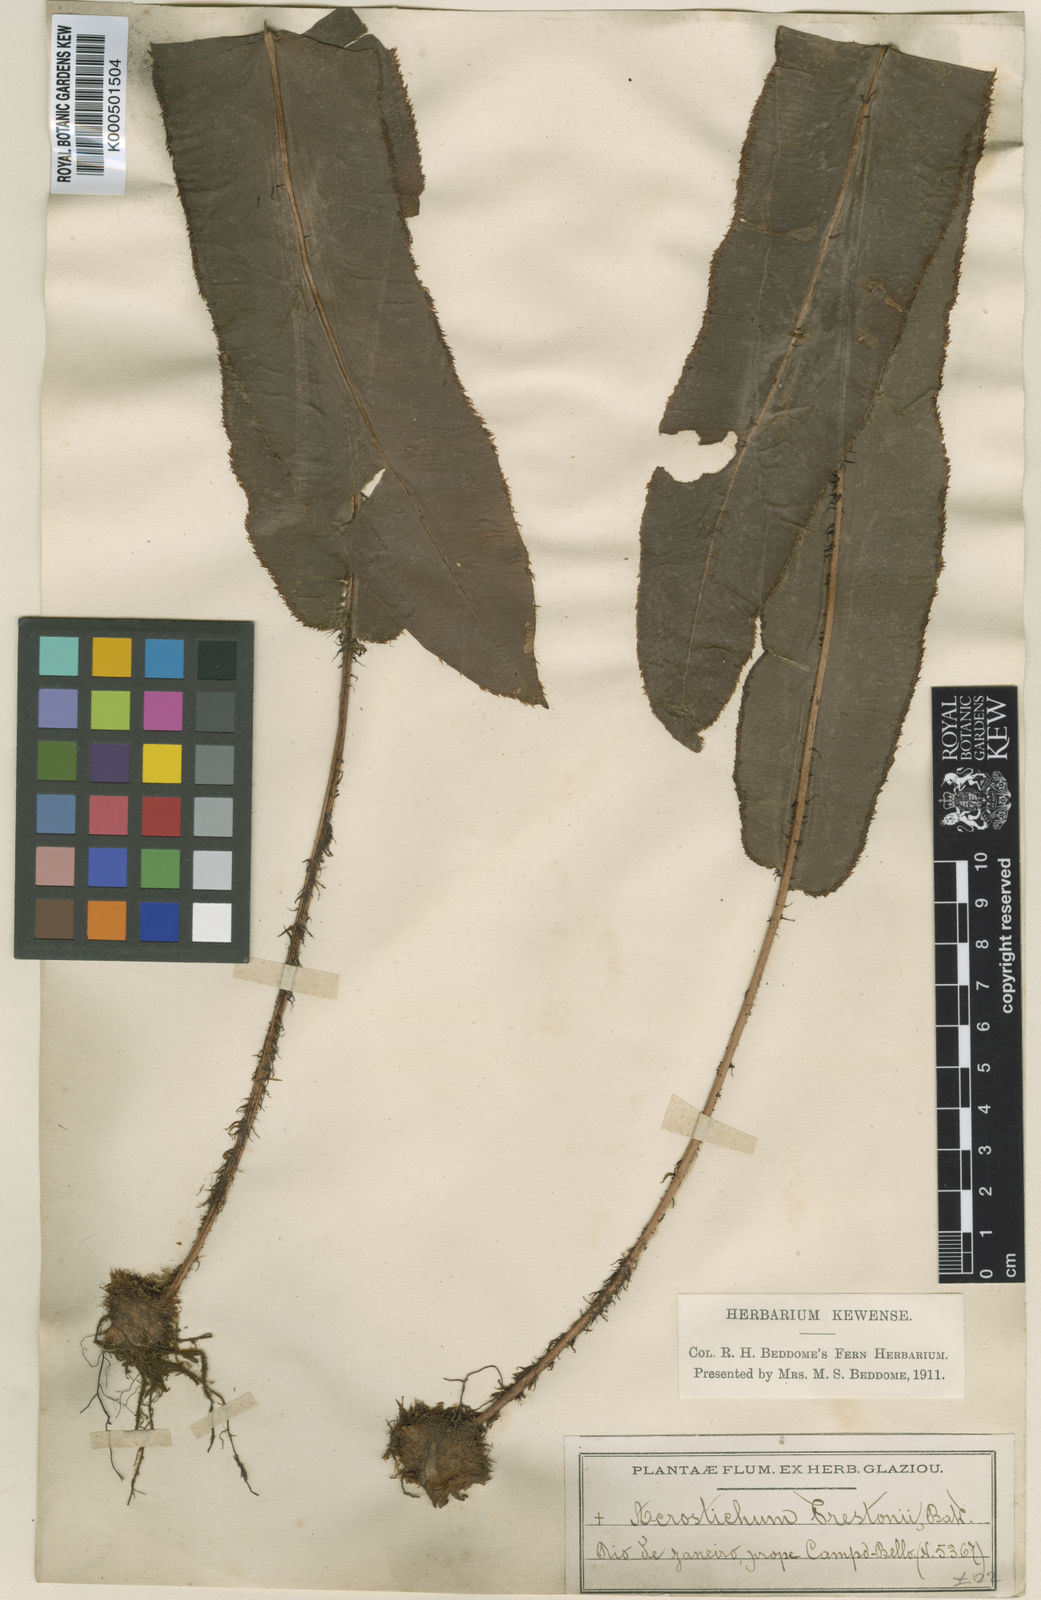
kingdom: Plantae
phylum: Tracheophyta
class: Polypodiopsida
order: Polypodiales
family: Dryopteridaceae
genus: Elaphoglossum
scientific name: Elaphoglossum prestonii
